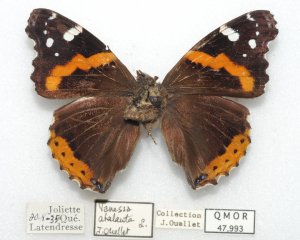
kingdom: Animalia
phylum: Arthropoda
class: Insecta
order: Lepidoptera
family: Nymphalidae
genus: Vanessa
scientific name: Vanessa atalanta
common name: Red Admiral
